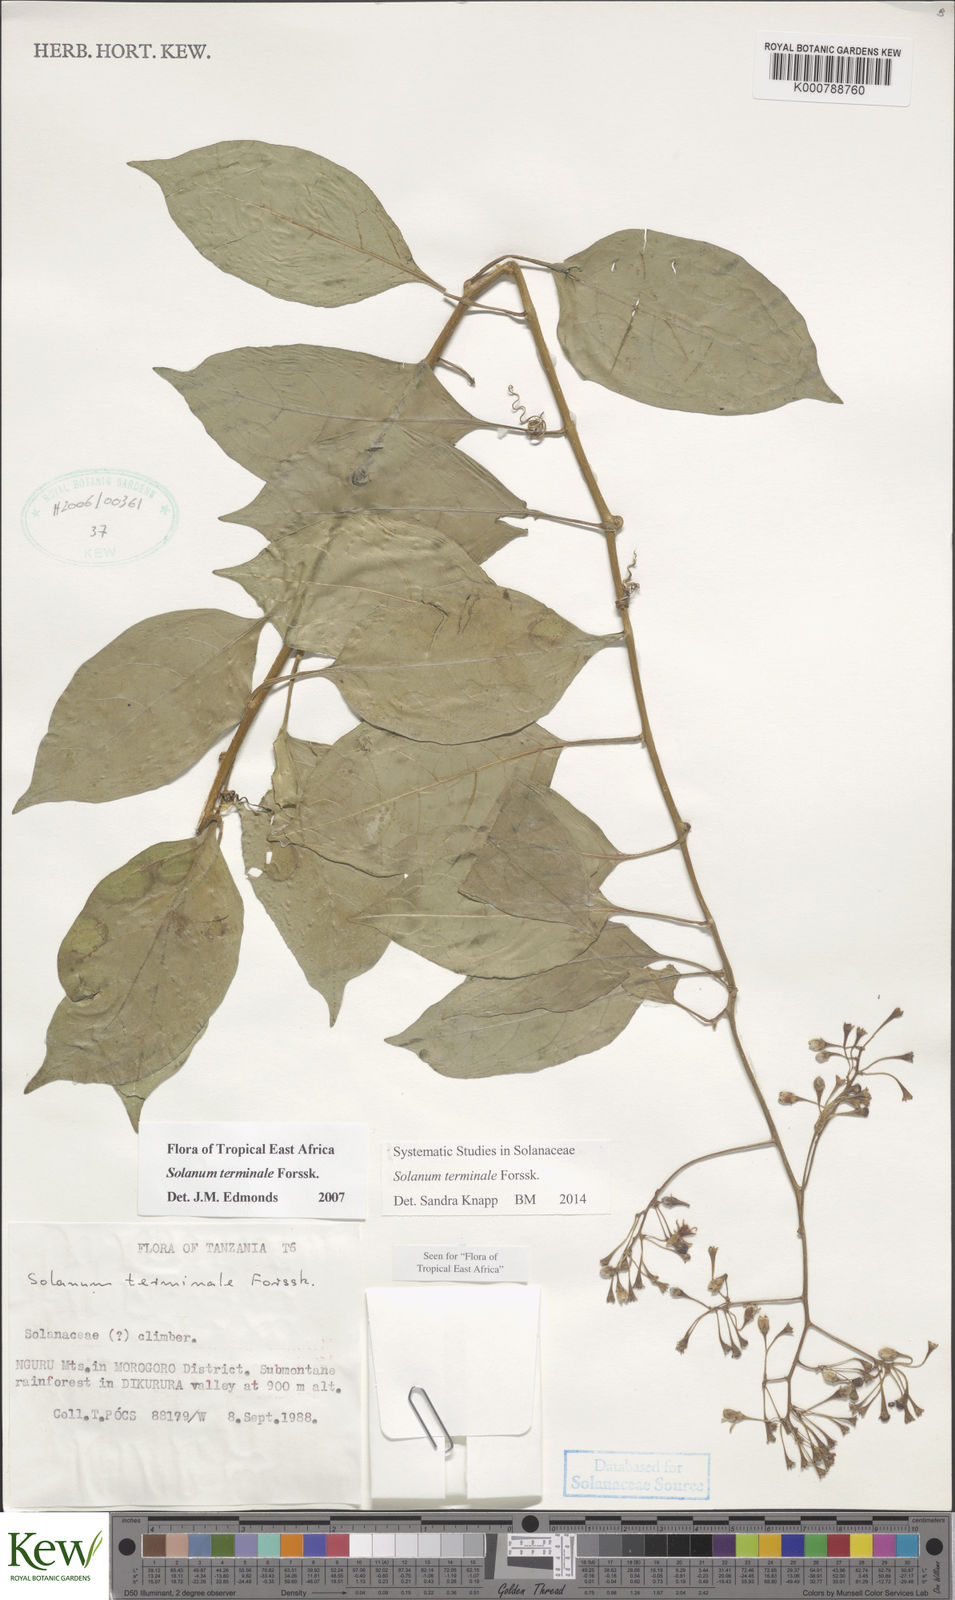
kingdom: Plantae
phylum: Tracheophyta
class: Magnoliopsida
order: Solanales
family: Solanaceae
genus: Solanum
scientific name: Solanum terminale
